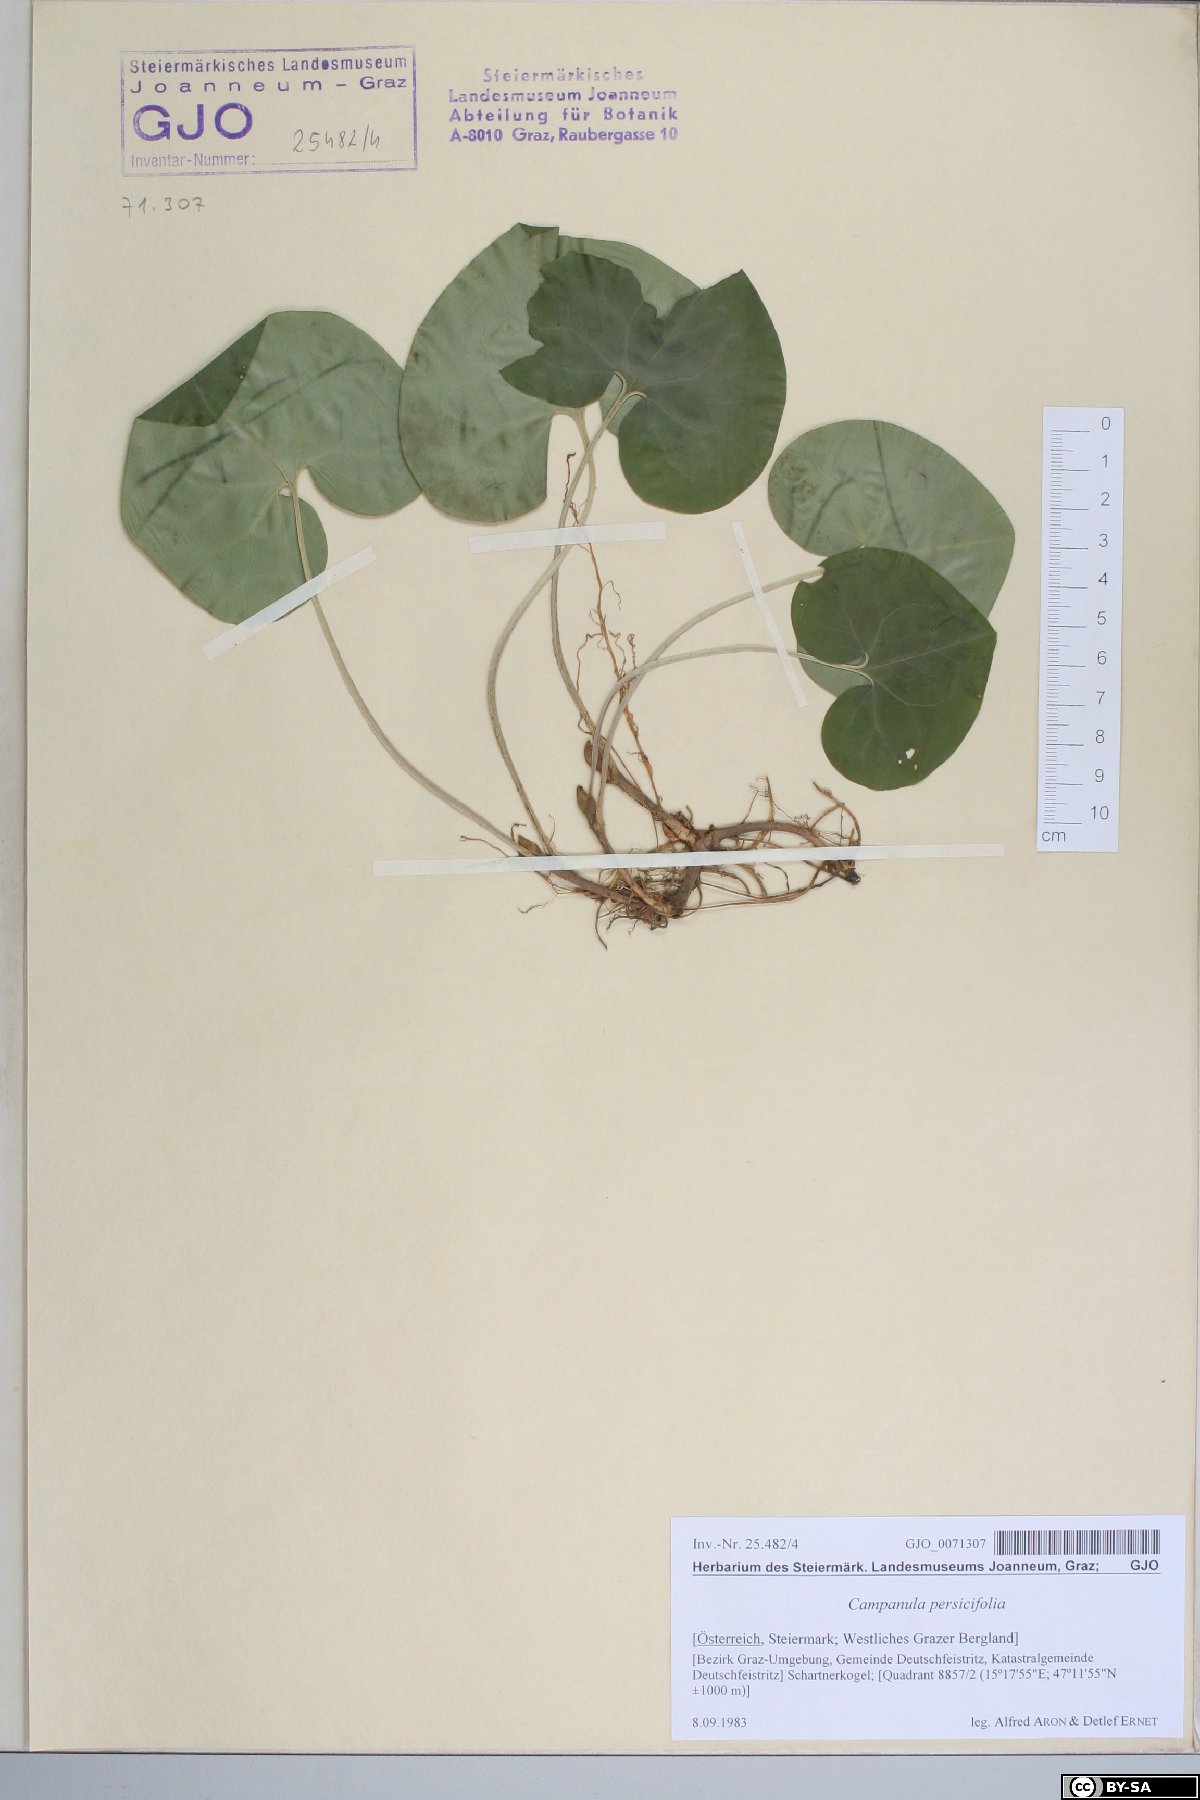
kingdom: Plantae
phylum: Tracheophyta
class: Magnoliopsida
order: Piperales
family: Aristolochiaceae
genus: Asarum
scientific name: Asarum europaeum
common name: Asarabacca
